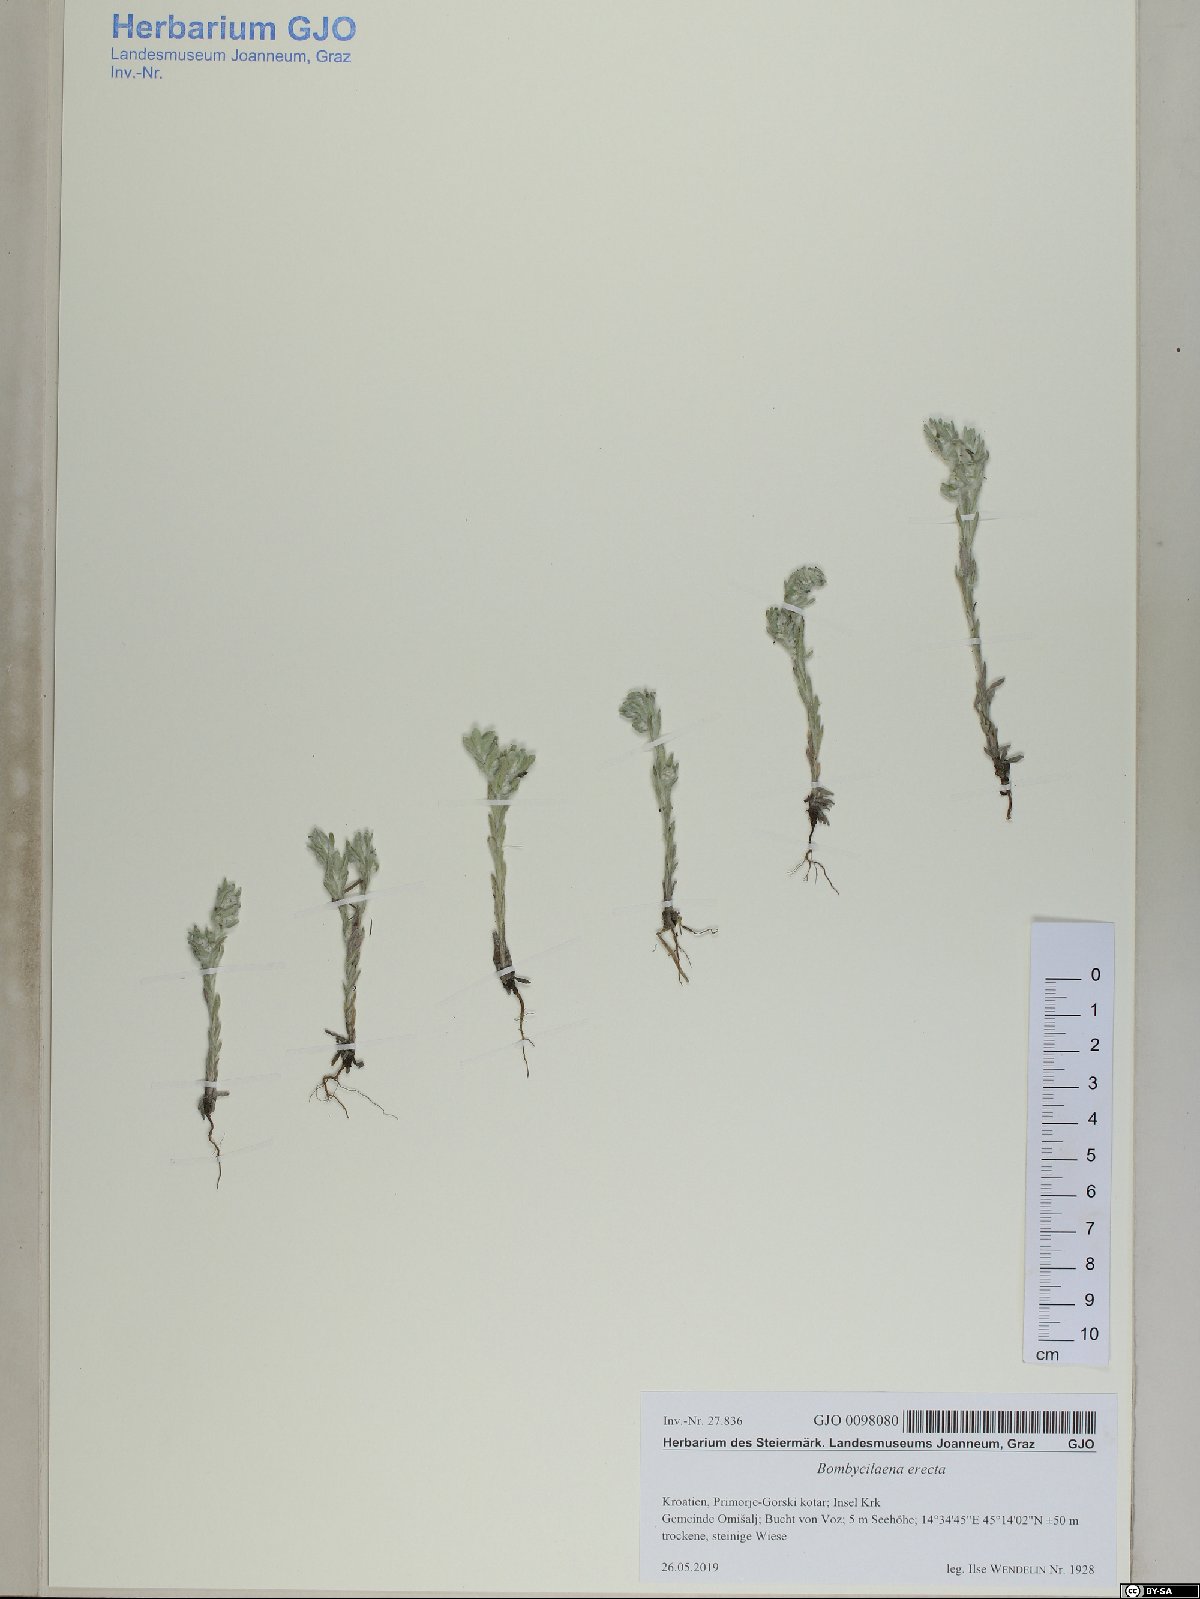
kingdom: Plantae
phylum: Tracheophyta
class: Magnoliopsida
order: Asterales
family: Asteraceae
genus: Bombycilaena
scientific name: Bombycilaena erecta
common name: Micropus
